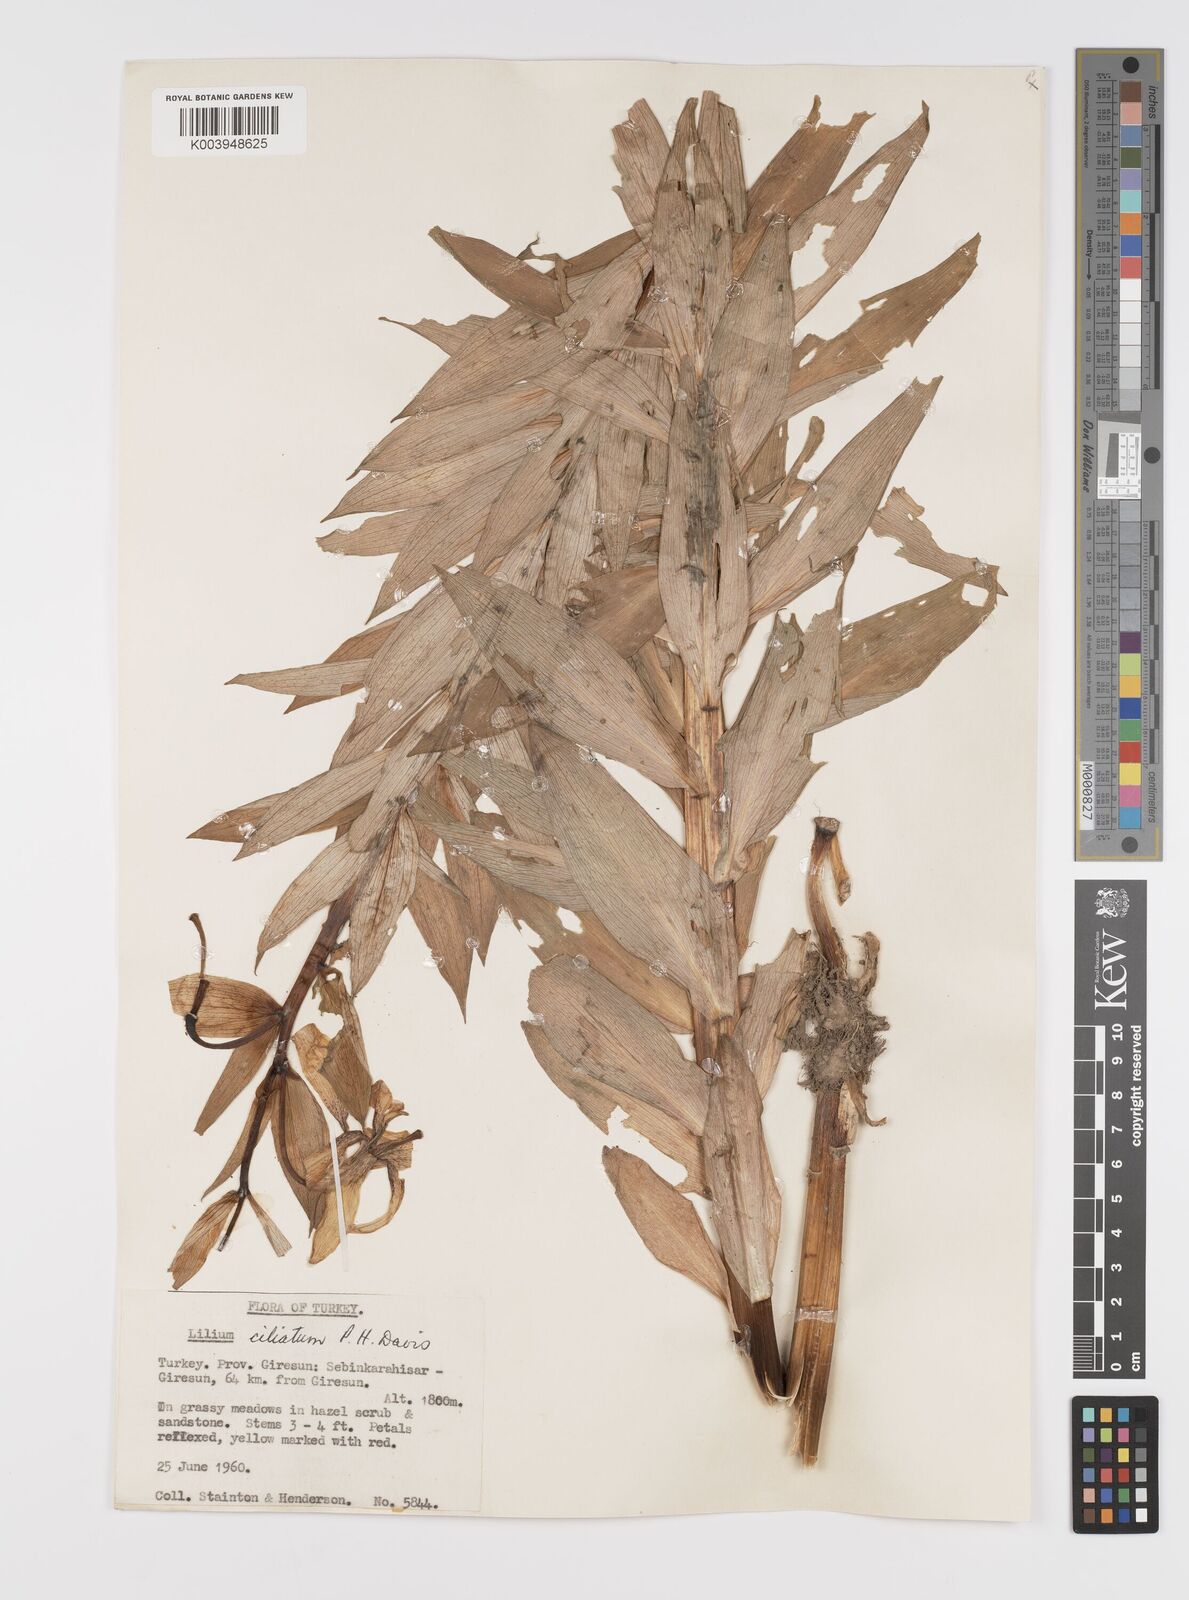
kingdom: Plantae
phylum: Tracheophyta
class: Liliopsida
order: Liliales
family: Liliaceae
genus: Lilium
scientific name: Lilium ciliatum
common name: Ciliate lily
